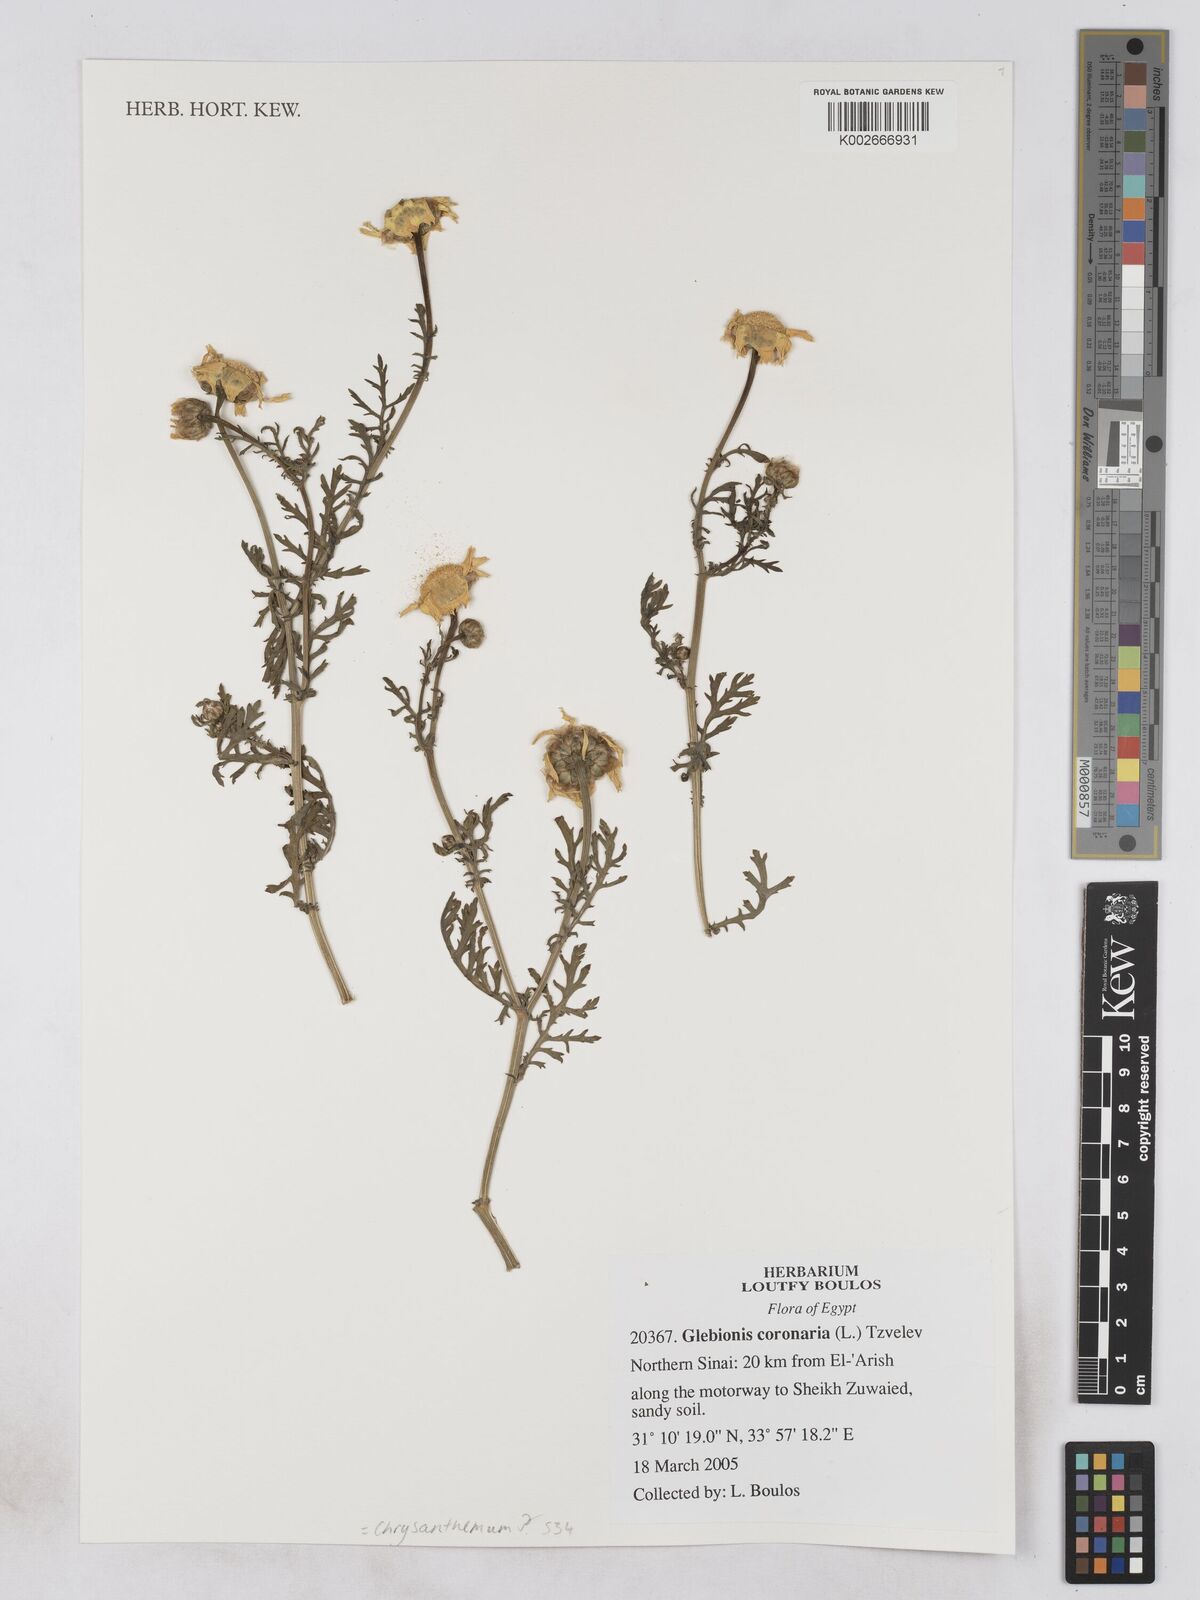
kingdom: Plantae
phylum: Tracheophyta
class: Magnoliopsida
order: Asterales
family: Asteraceae
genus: Glebionis
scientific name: Glebionis coronaria
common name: Crowndaisy
